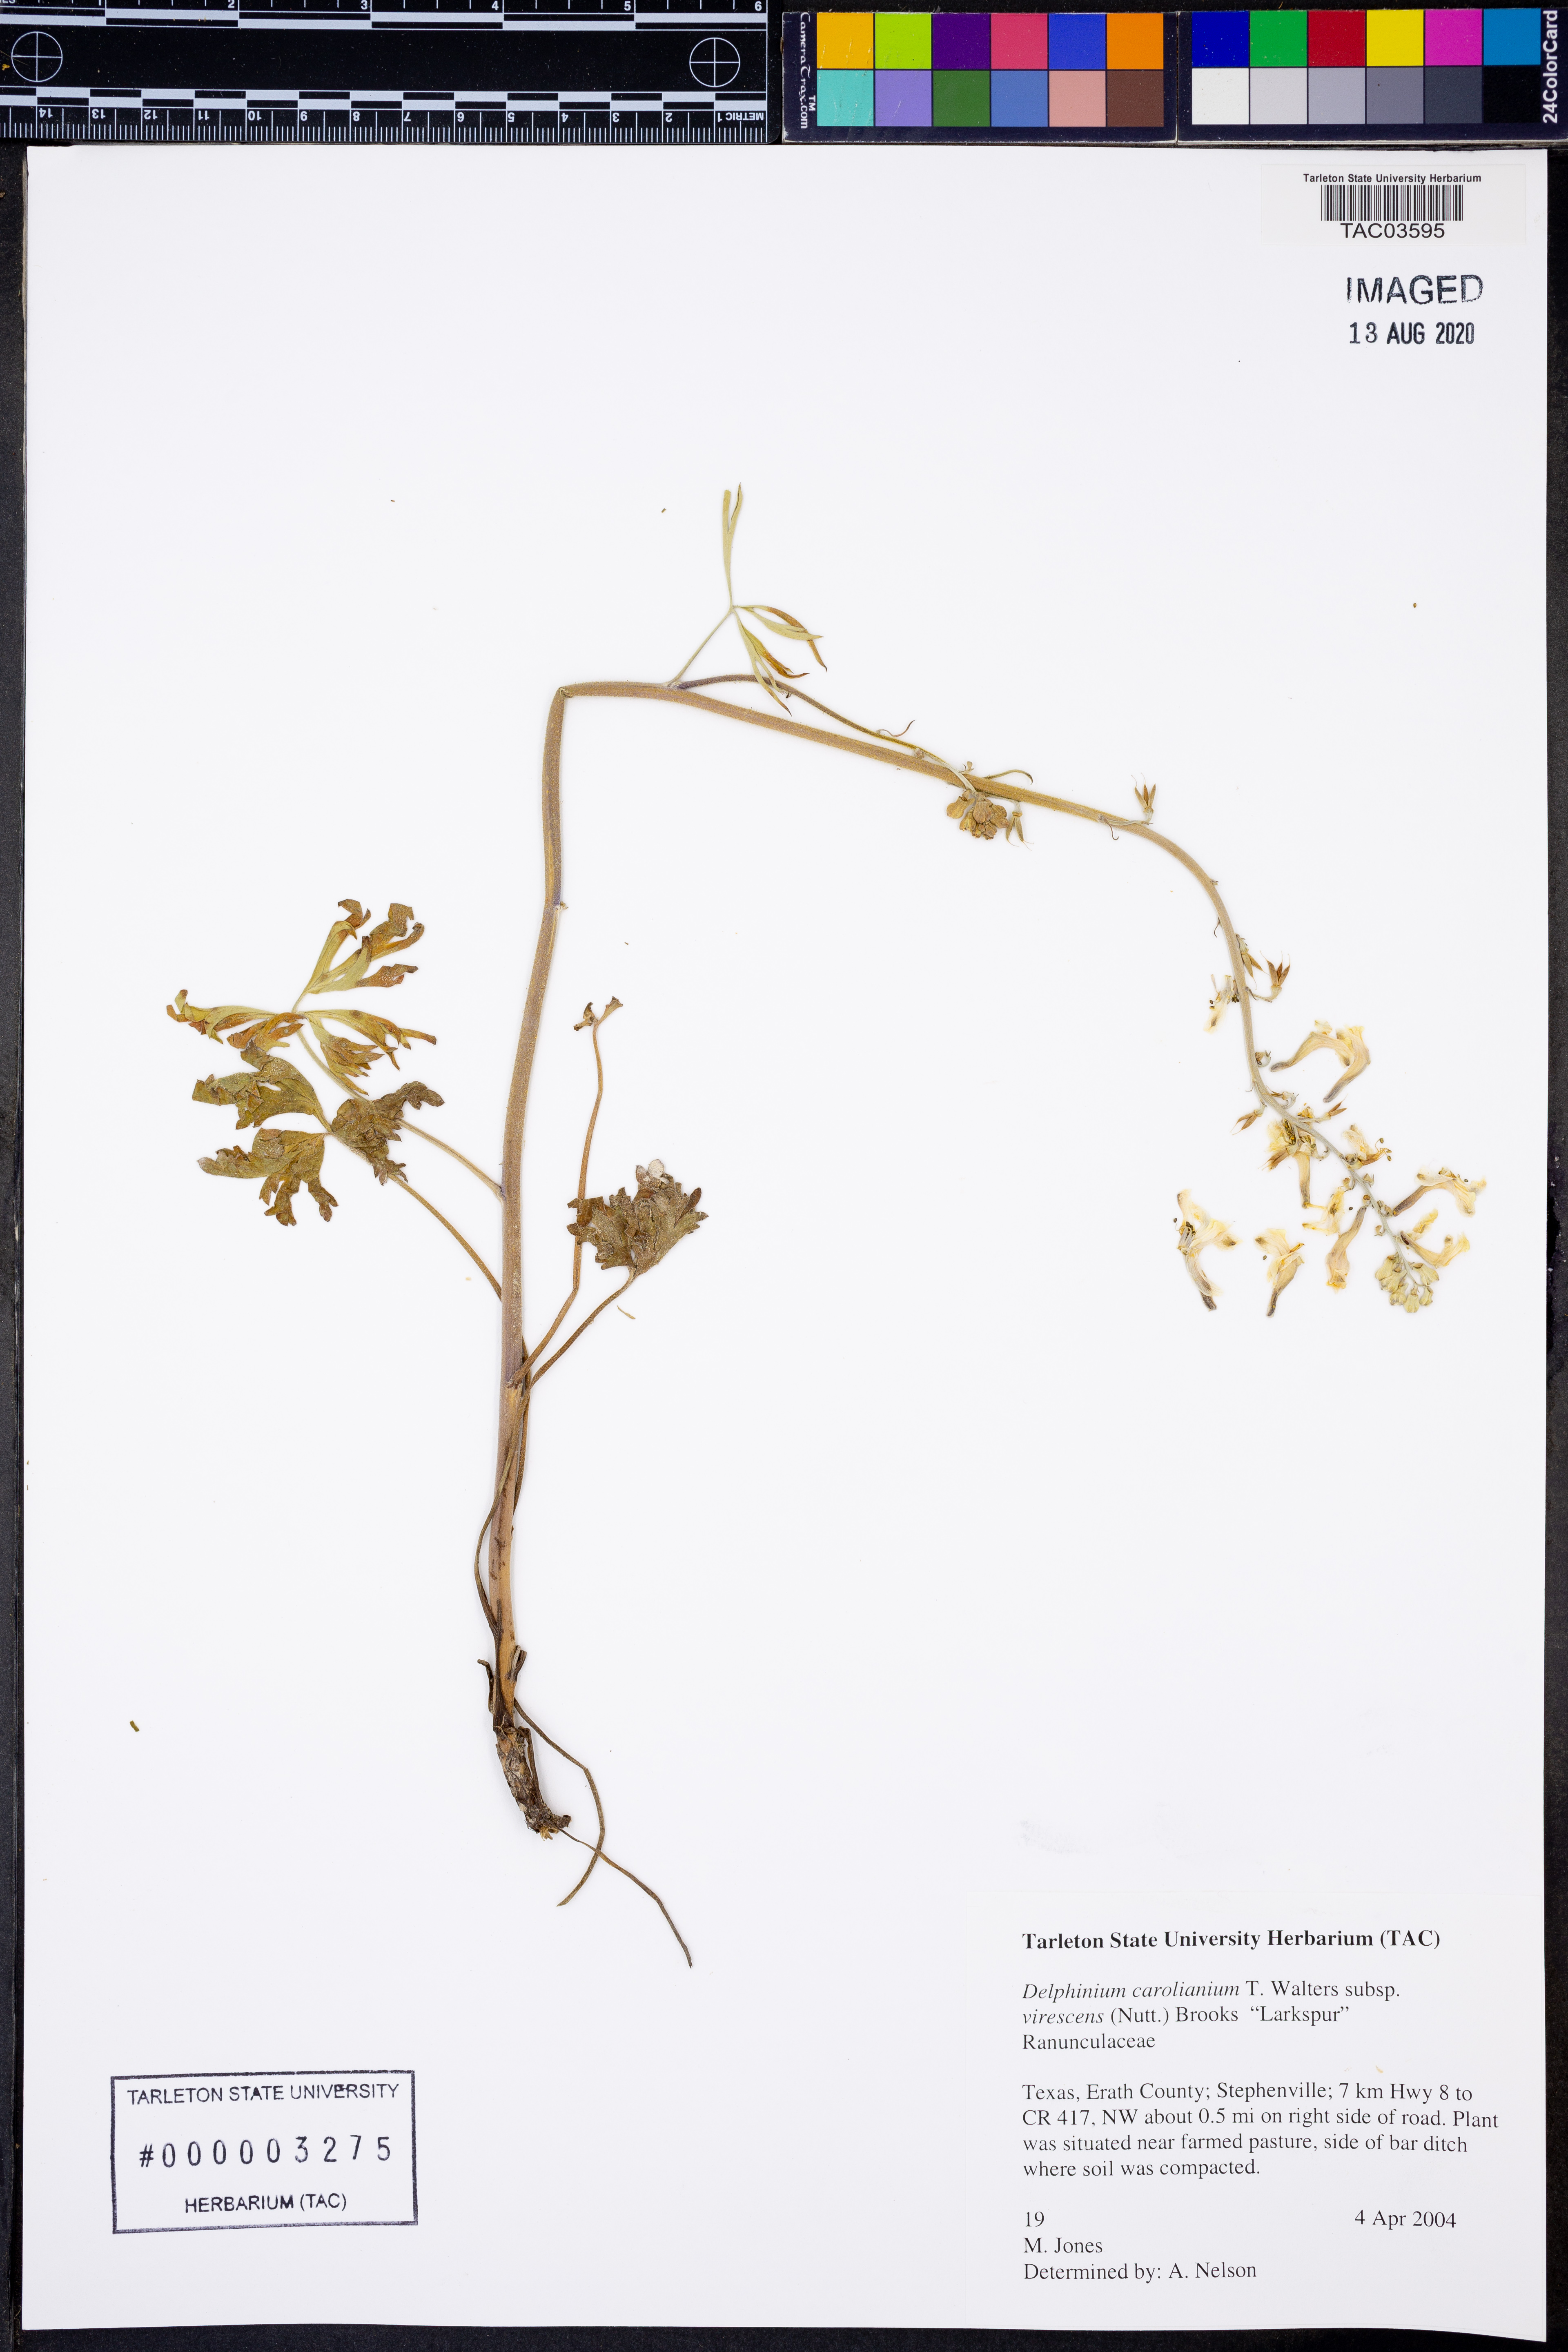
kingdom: Plantae
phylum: Tracheophyta
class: Magnoliopsida
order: Ranunculales
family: Ranunculaceae
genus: Delphinium
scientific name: Delphinium carolinianum
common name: Carolina larkspur
